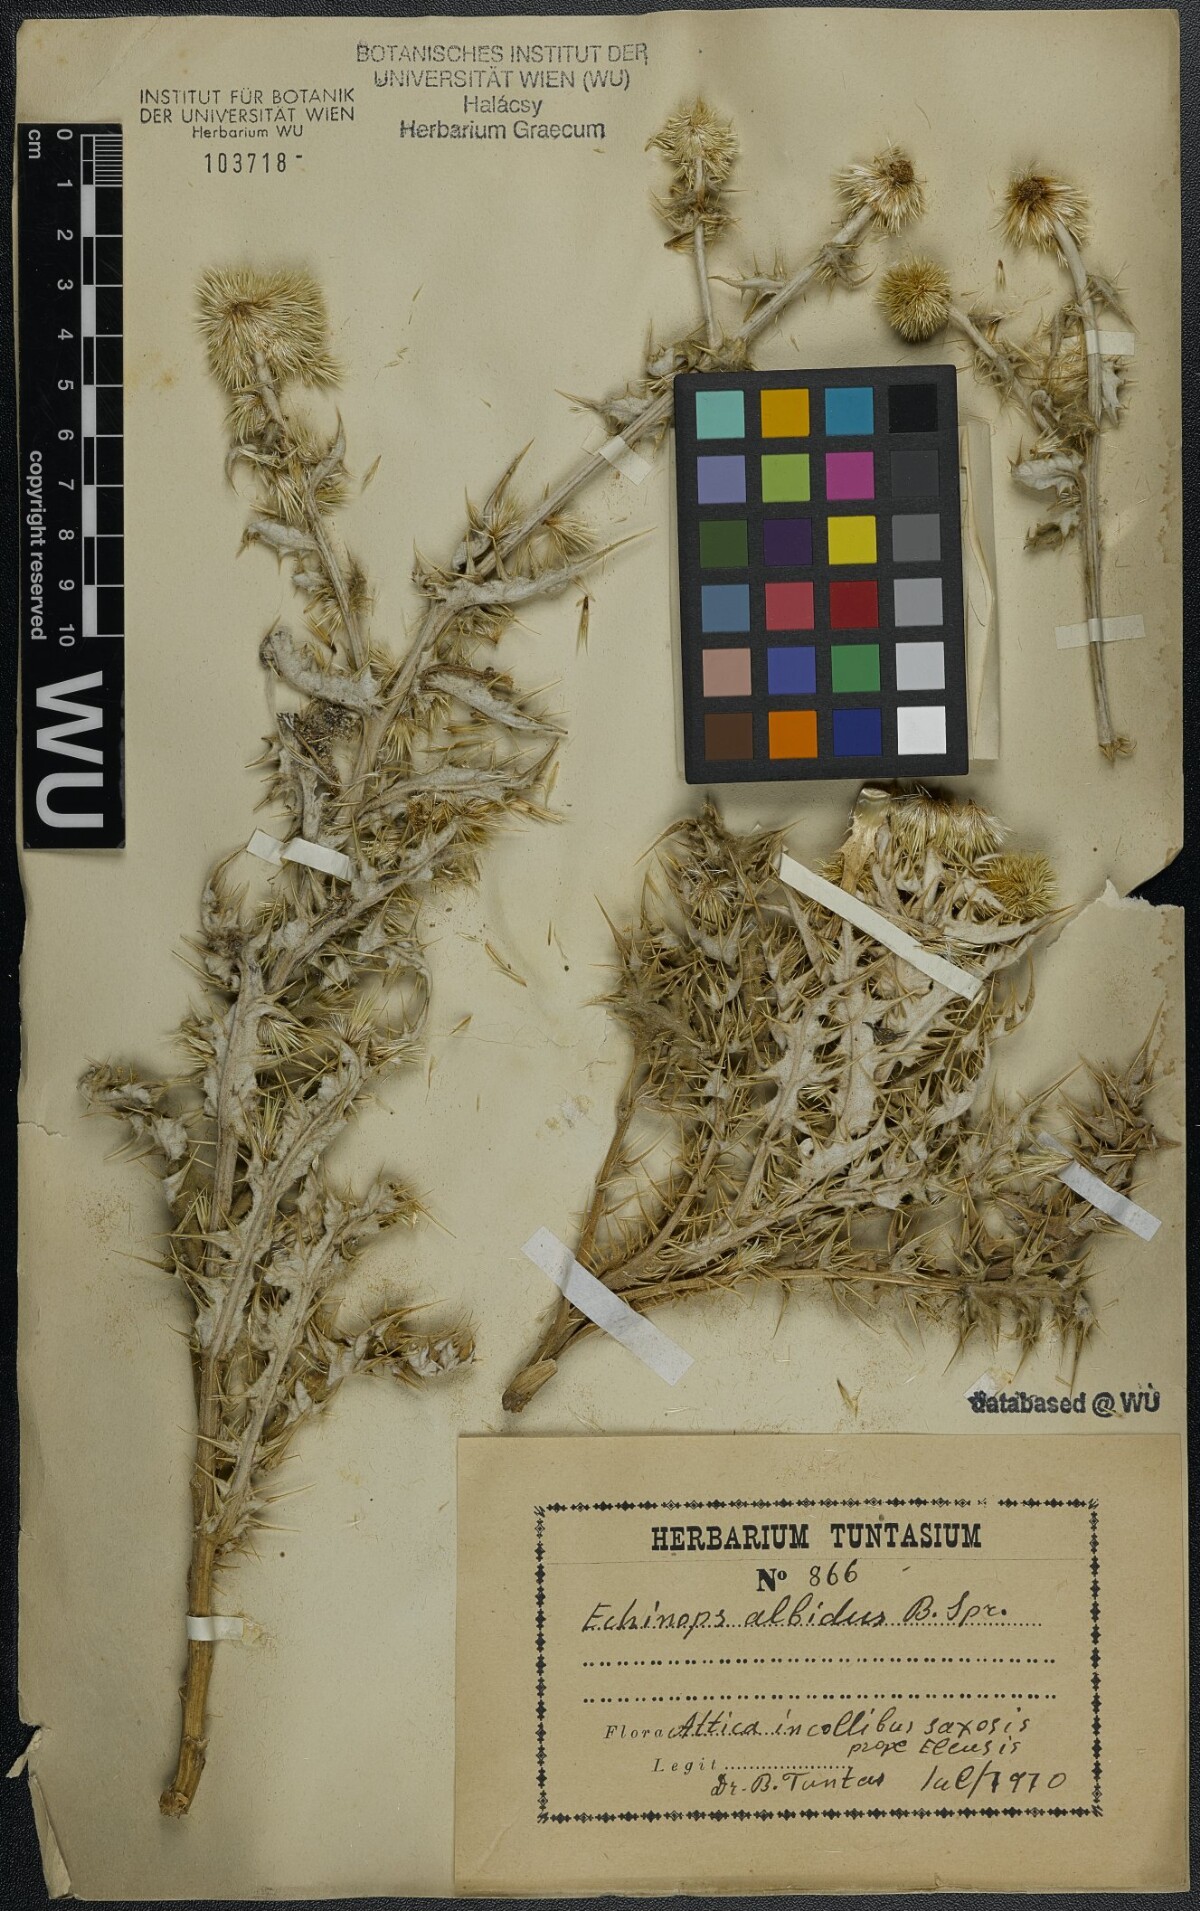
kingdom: Plantae
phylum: Tracheophyta
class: Magnoliopsida
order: Asterales
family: Asteraceae
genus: Echinops
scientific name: Echinops sphaerocephalus
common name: Glandular globe-thistle
